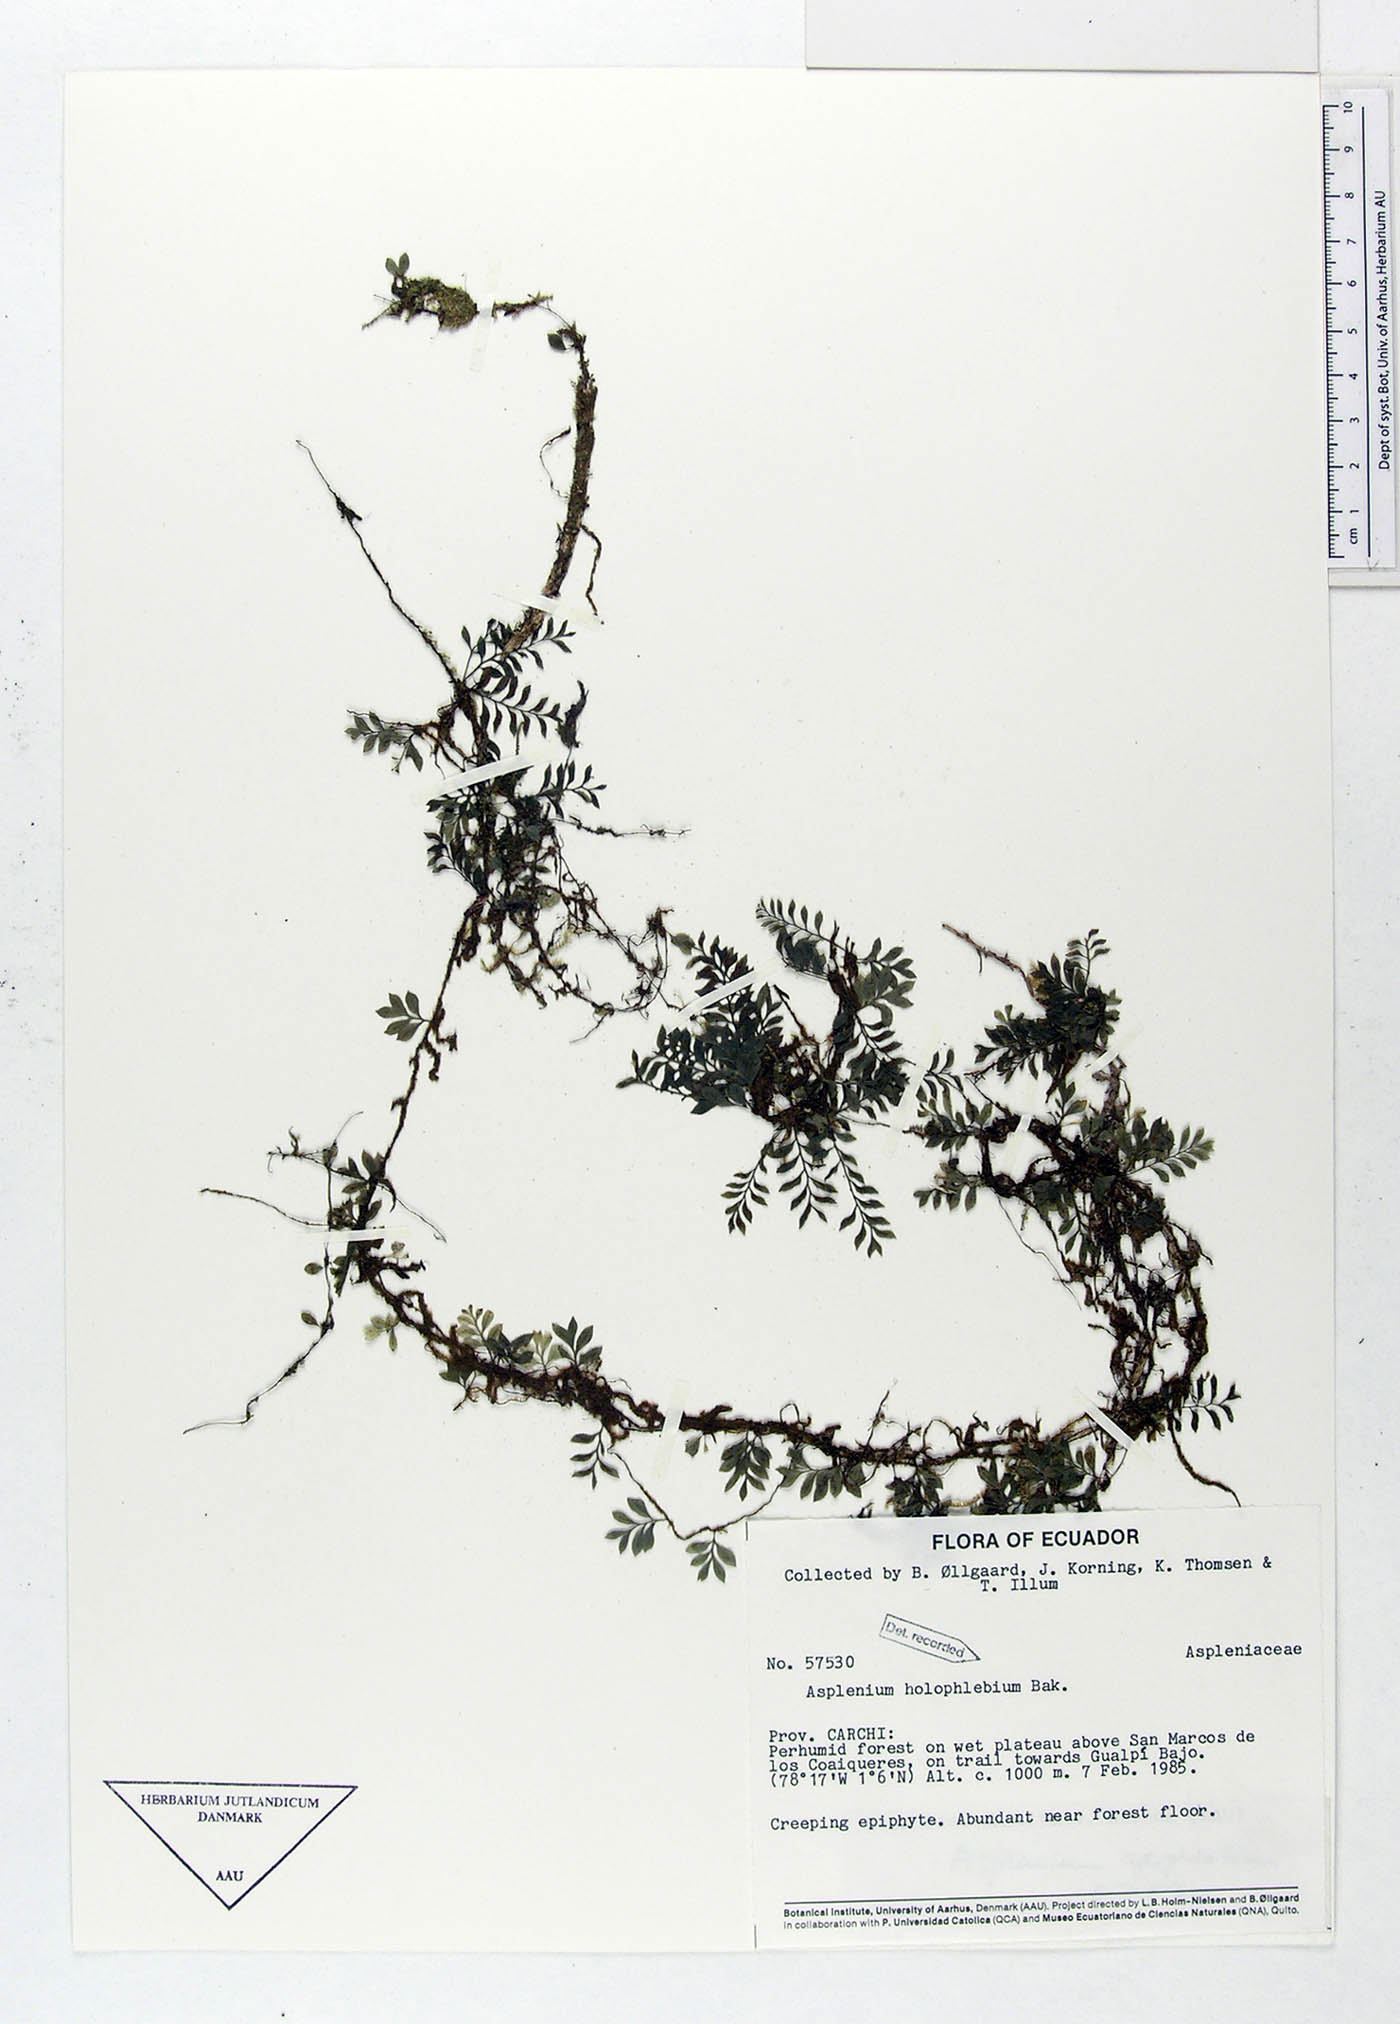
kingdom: Plantae
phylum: Tracheophyta
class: Polypodiopsida
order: Polypodiales
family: Aspleniaceae
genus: Asplenium
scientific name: Asplenium holophlebium
